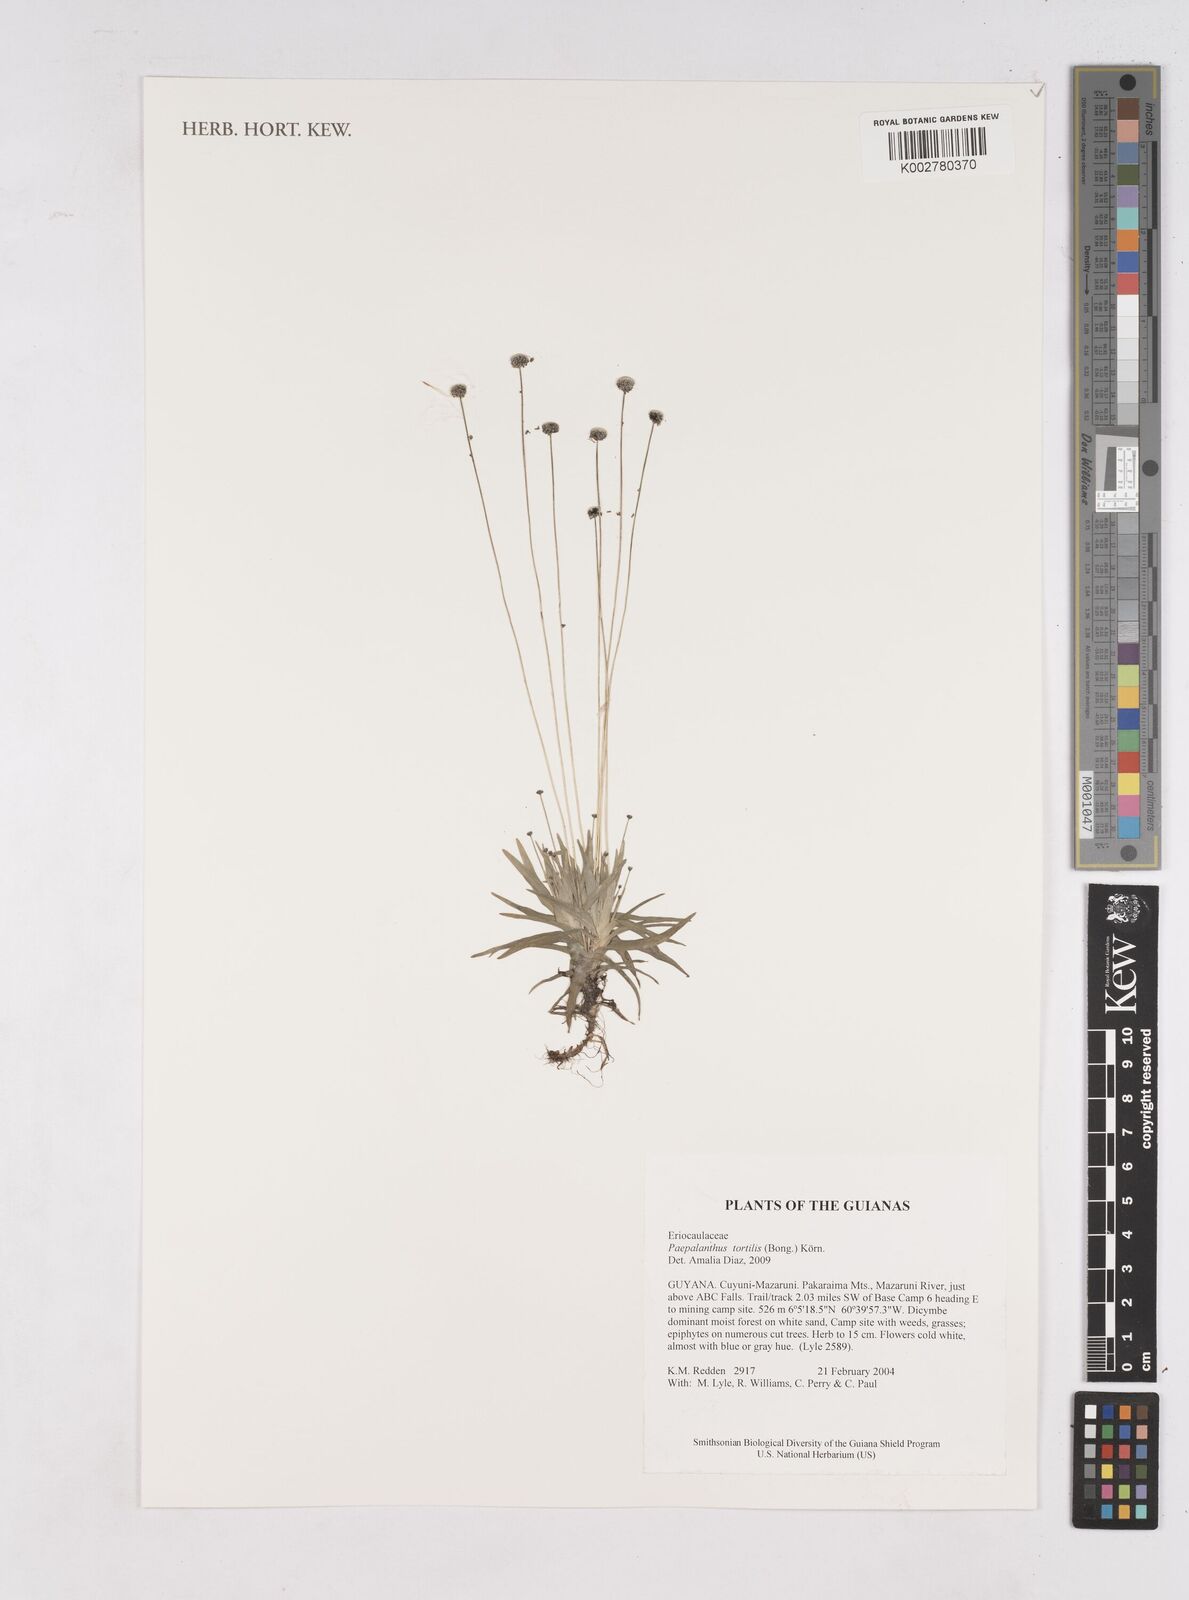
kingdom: Plantae
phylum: Tracheophyta
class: Liliopsida
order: Poales
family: Eriocaulaceae
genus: Paepalanthus
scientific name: Paepalanthus tortilis
